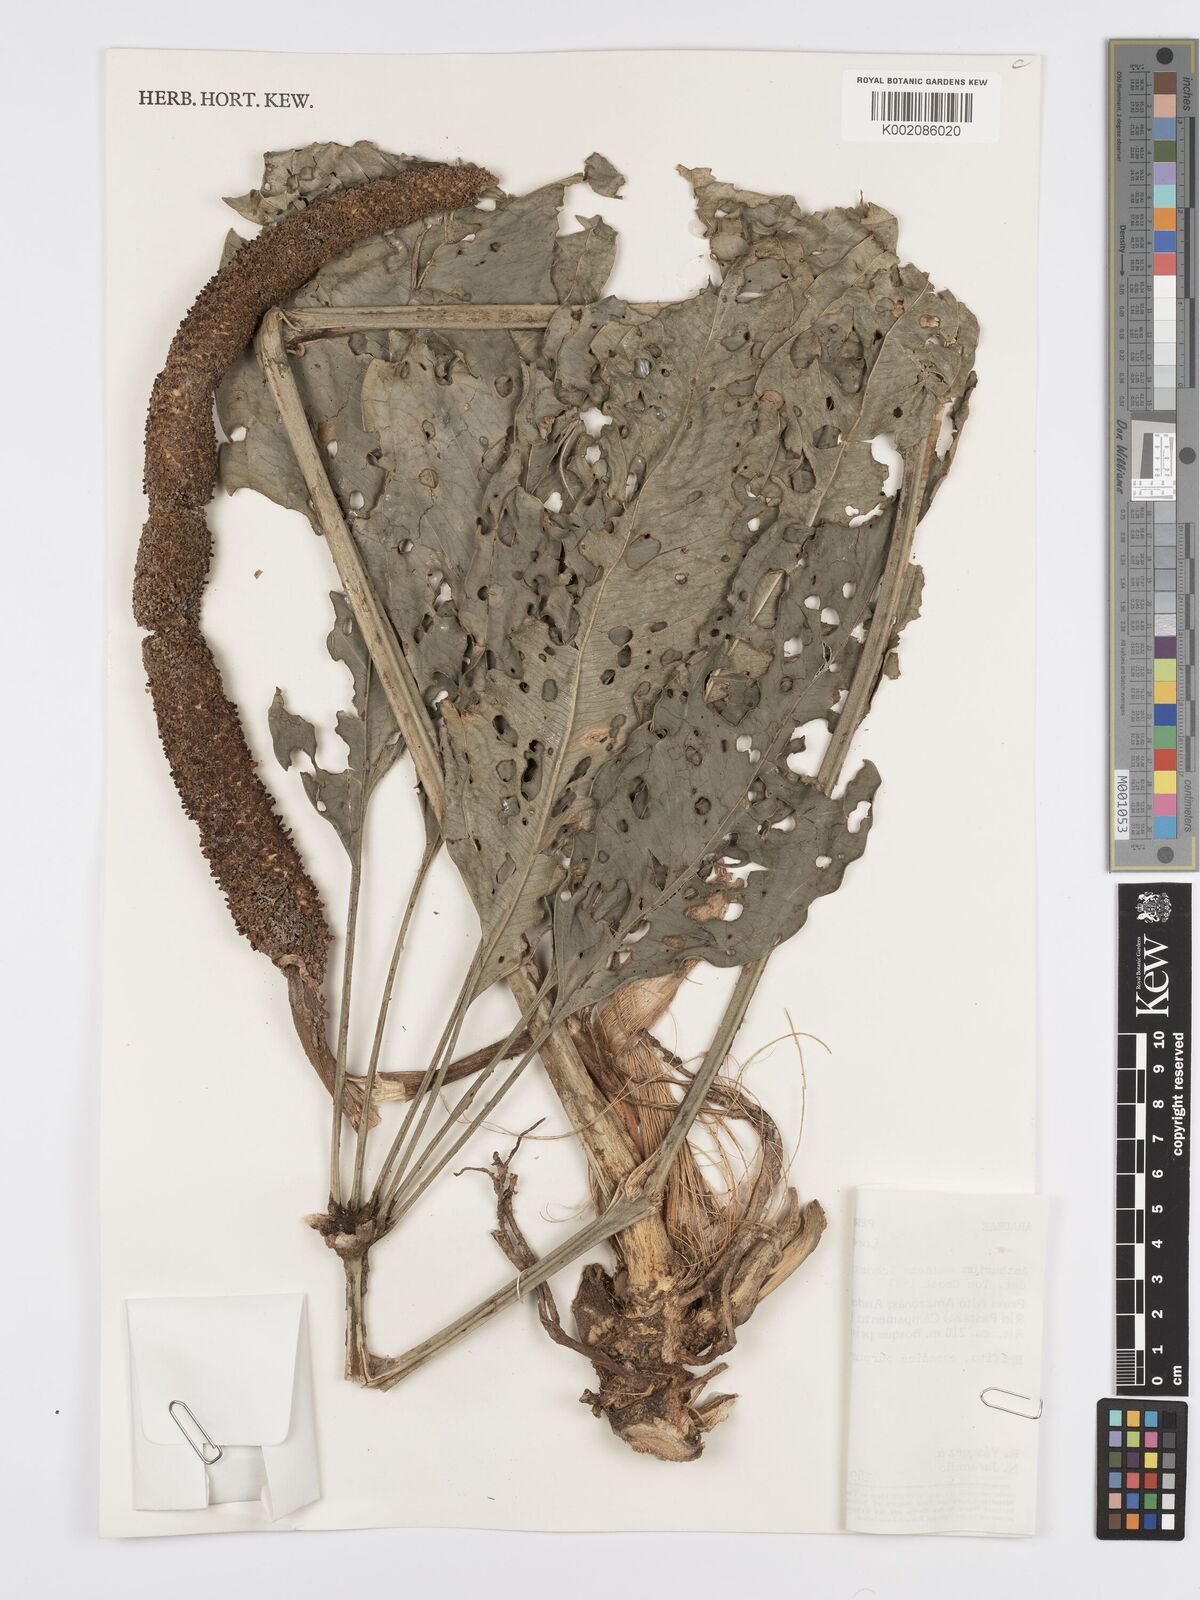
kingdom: Plantae
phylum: Tracheophyta
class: Liliopsida
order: Alismatales
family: Araceae
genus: Anthurium
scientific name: Anthurium eminens
